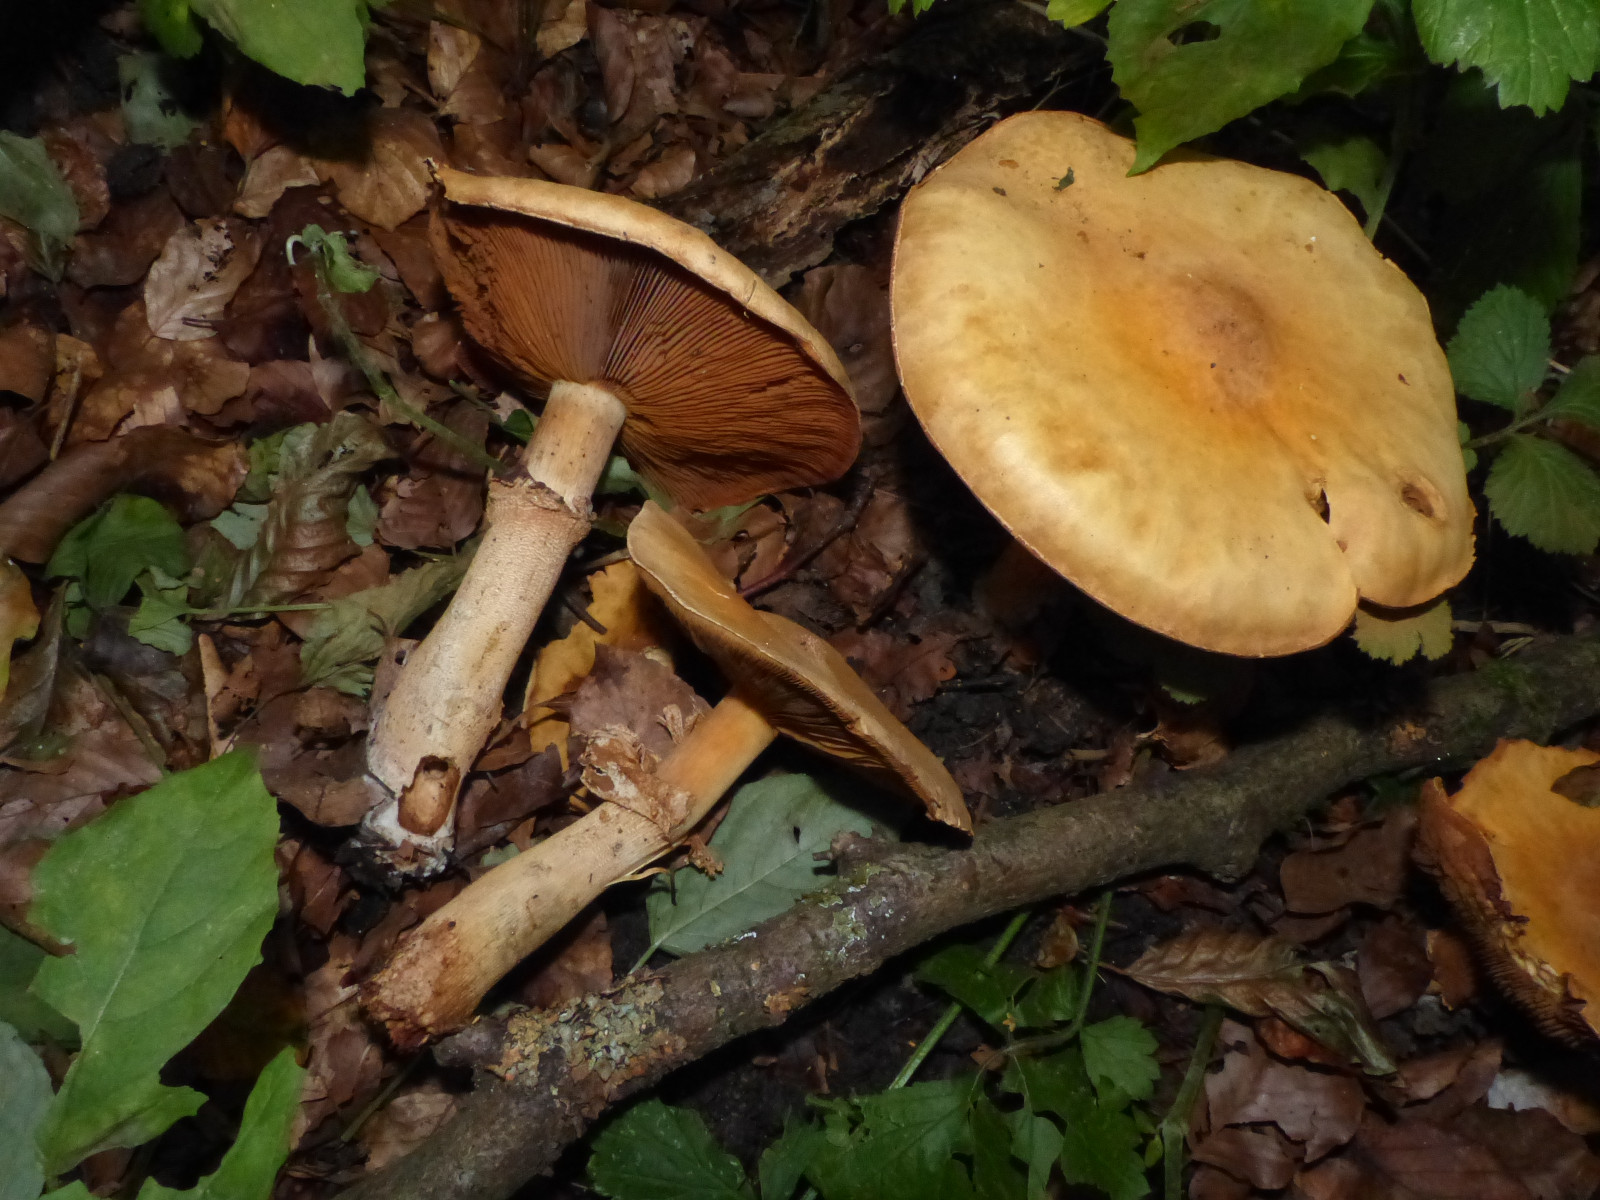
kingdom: Fungi
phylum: Basidiomycota
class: Agaricomycetes
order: Agaricales
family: Tricholomataceae
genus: Phaeolepiota
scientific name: Phaeolepiota aurea
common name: gyldenhat
